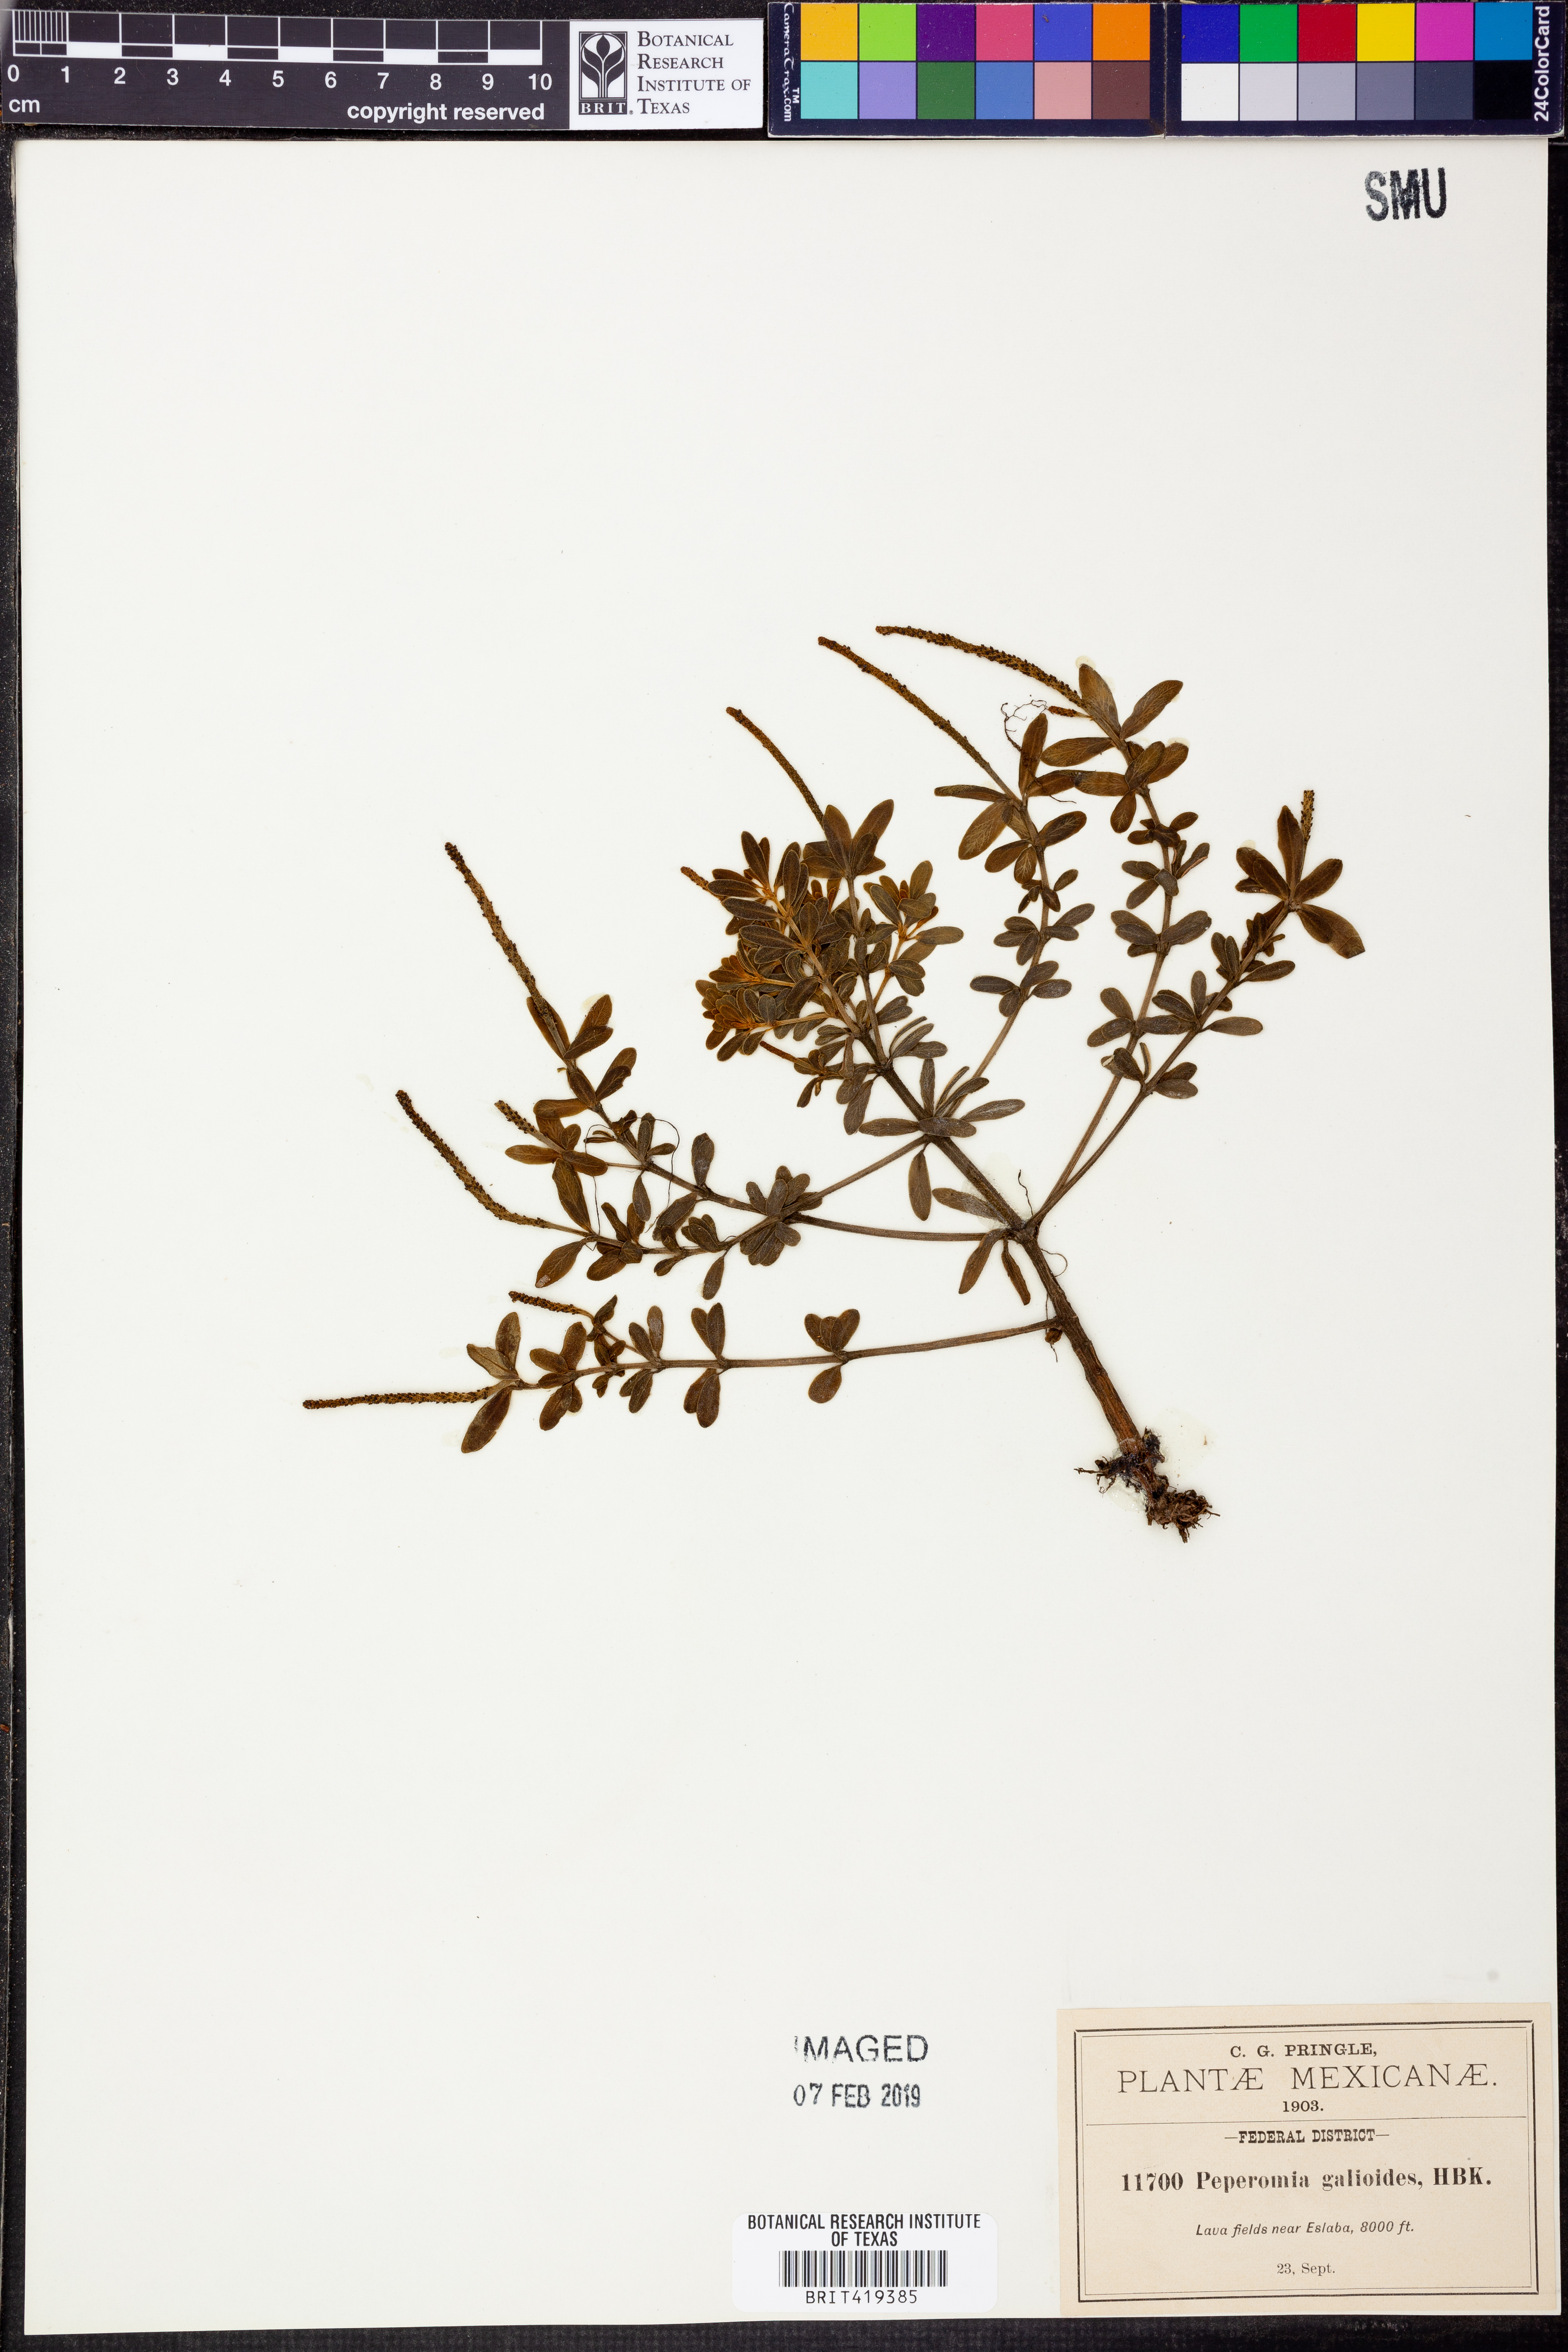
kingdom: Plantae
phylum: Tracheophyta
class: Magnoliopsida
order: Piperales
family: Piperaceae
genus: Peperomia
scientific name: Peperomia galioides
